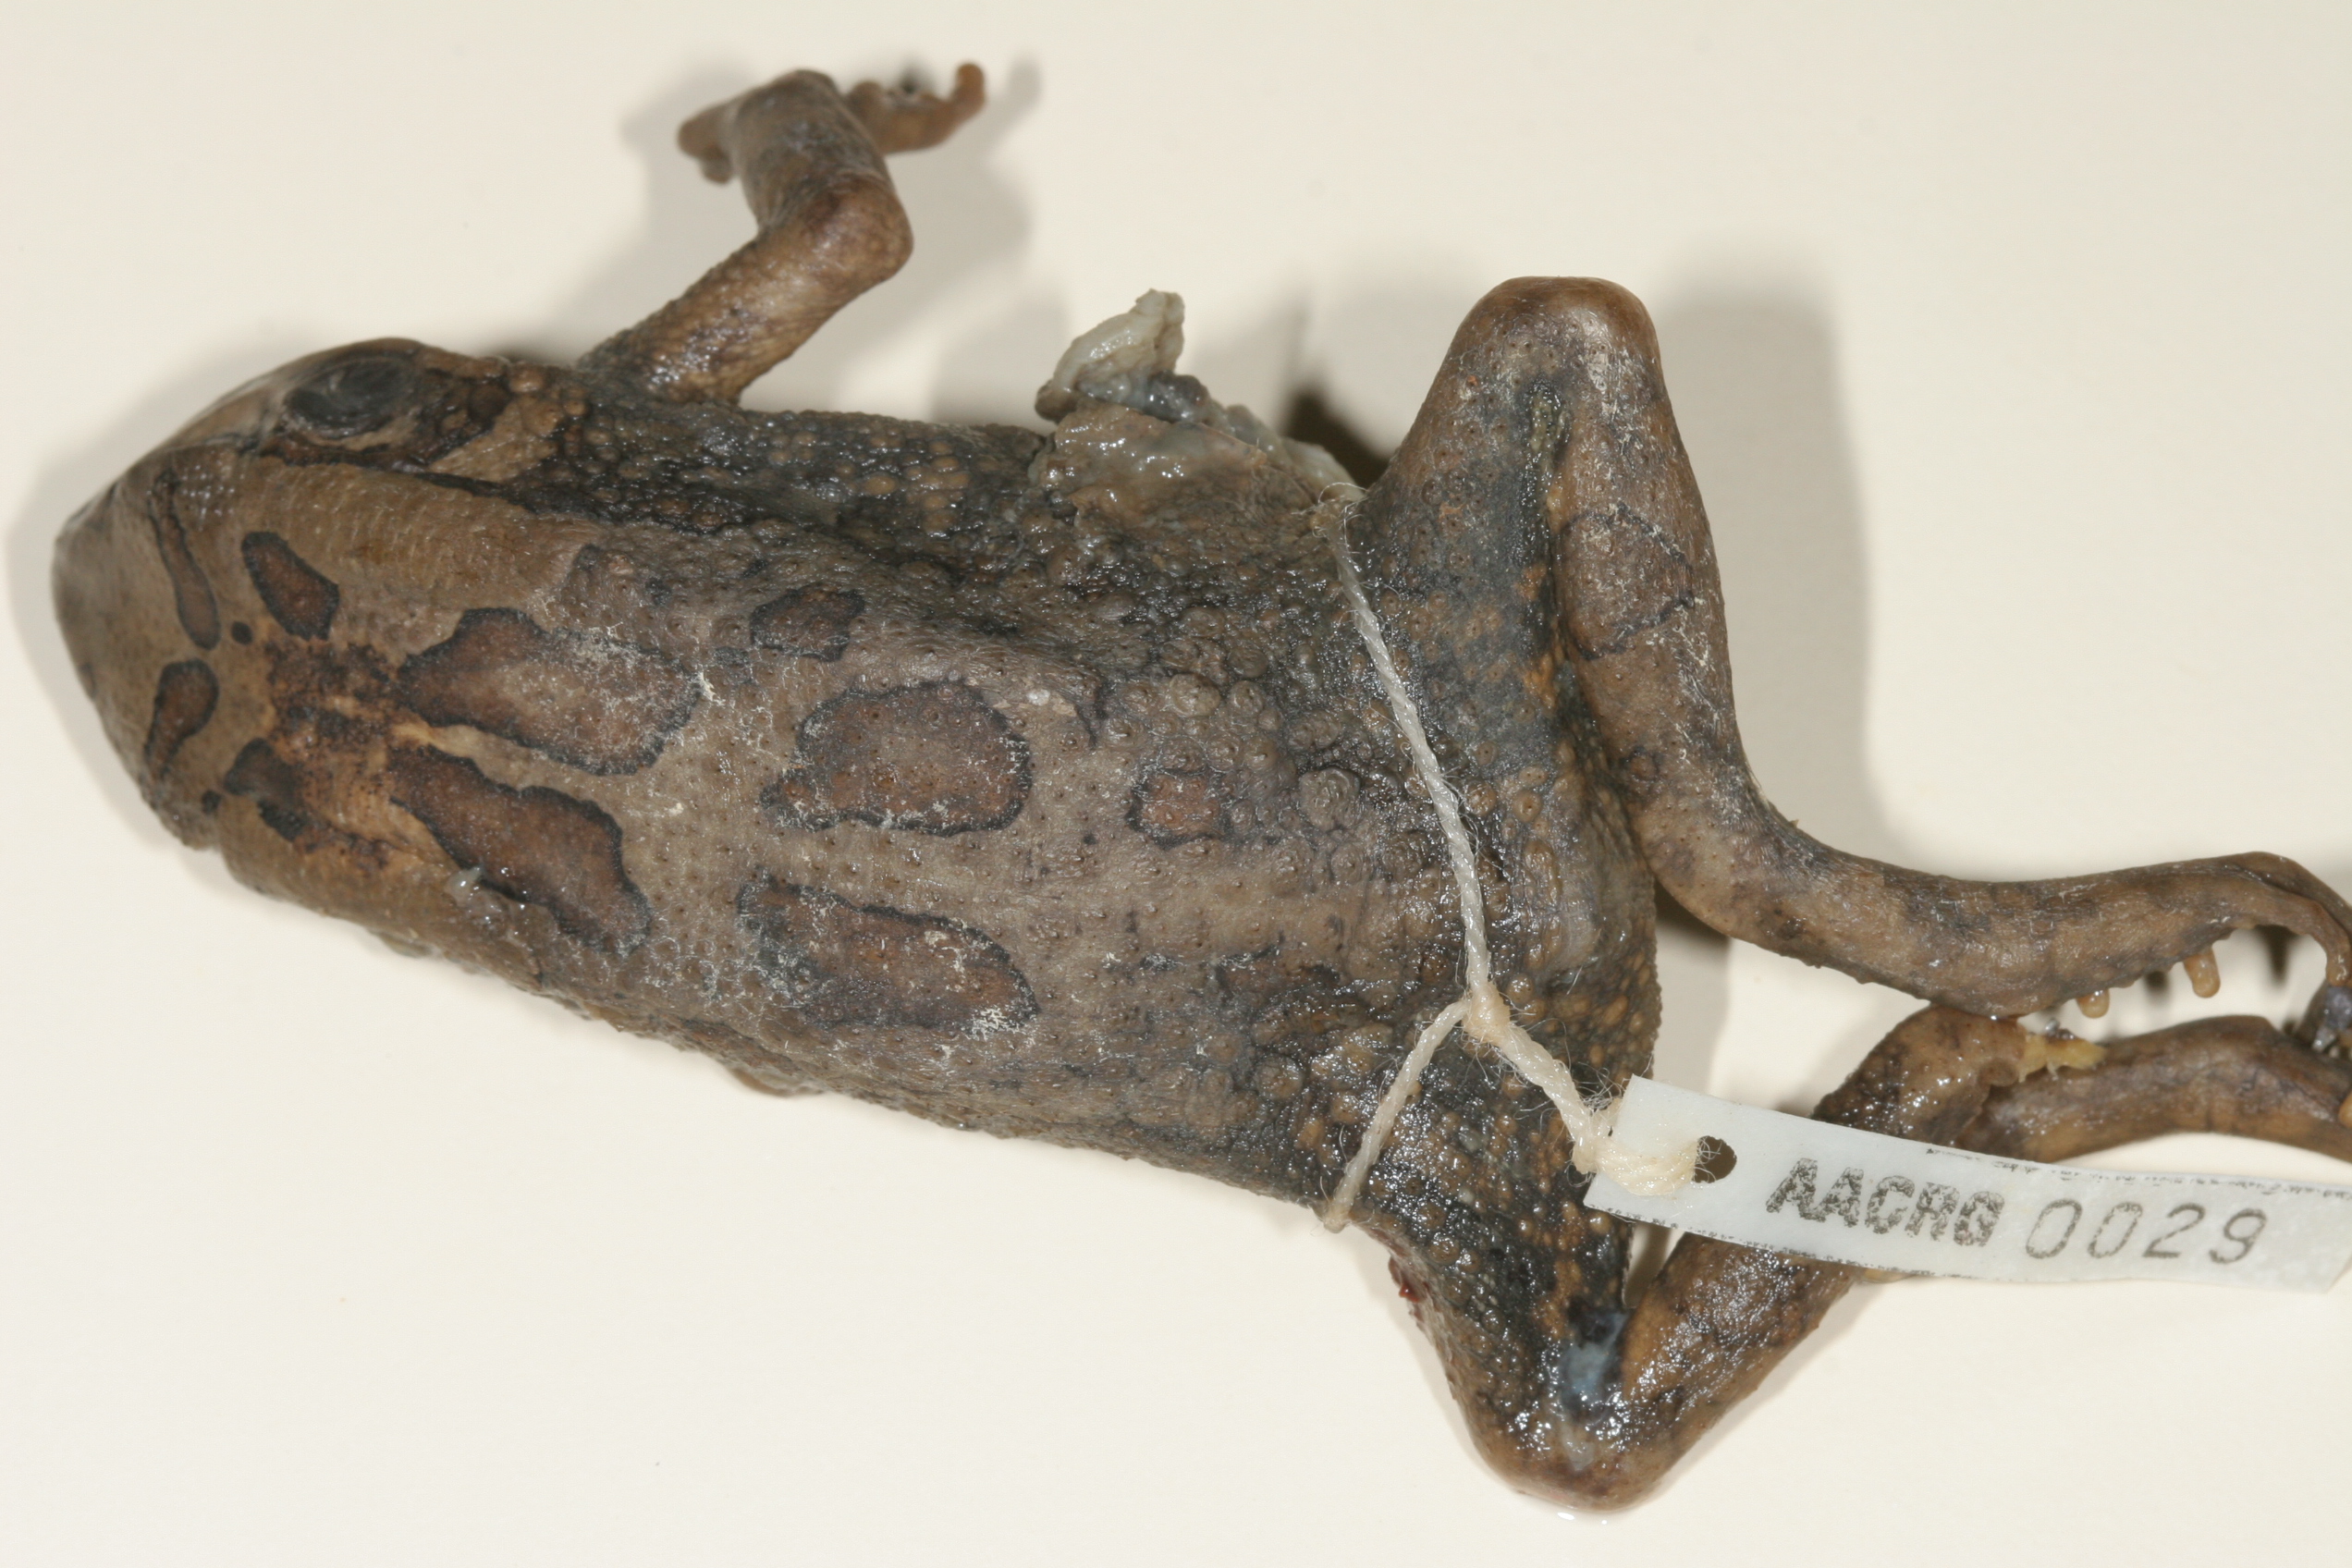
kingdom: Animalia
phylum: Chordata
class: Amphibia
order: Anura
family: Bufonidae
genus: Sclerophrys
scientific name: Sclerophrys garmani
